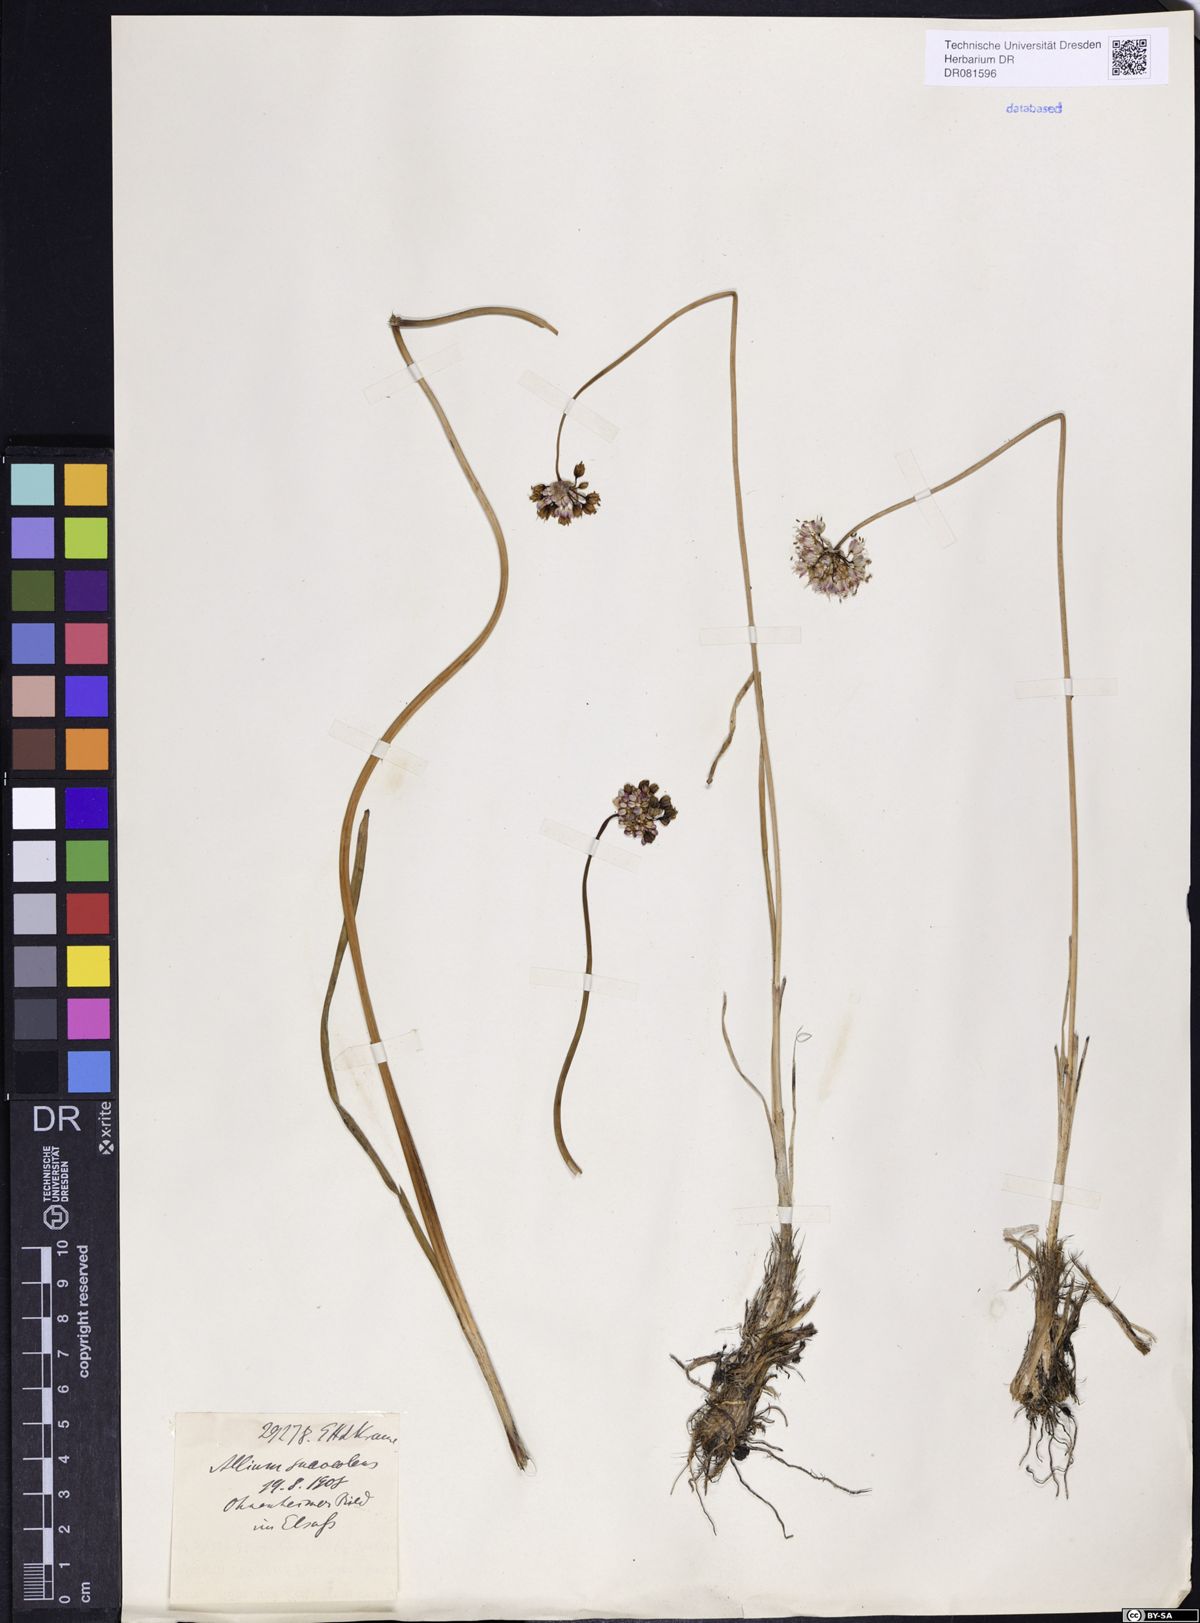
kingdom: Plantae
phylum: Tracheophyta
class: Liliopsida
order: Asparagales
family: Amaryllidaceae
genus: Allium
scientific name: Allium suaveolens
